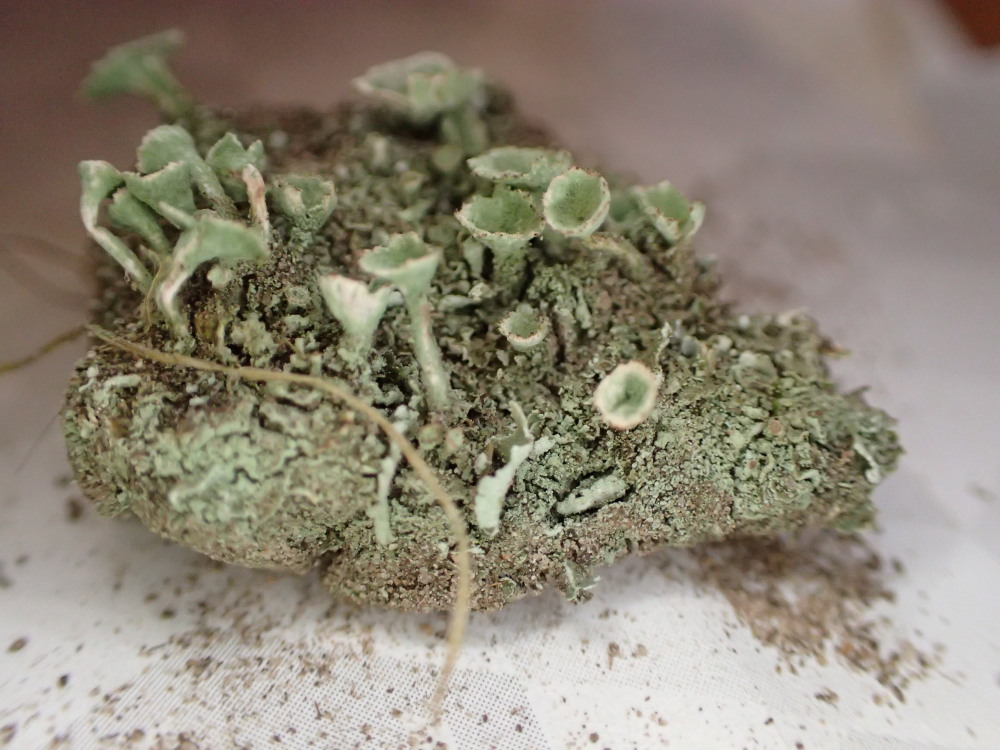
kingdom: Fungi
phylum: Ascomycota
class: Lecanoromycetes
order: Lecanorales
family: Cladoniaceae
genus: Cladonia
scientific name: Cladonia humilis
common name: lav bægerlav
